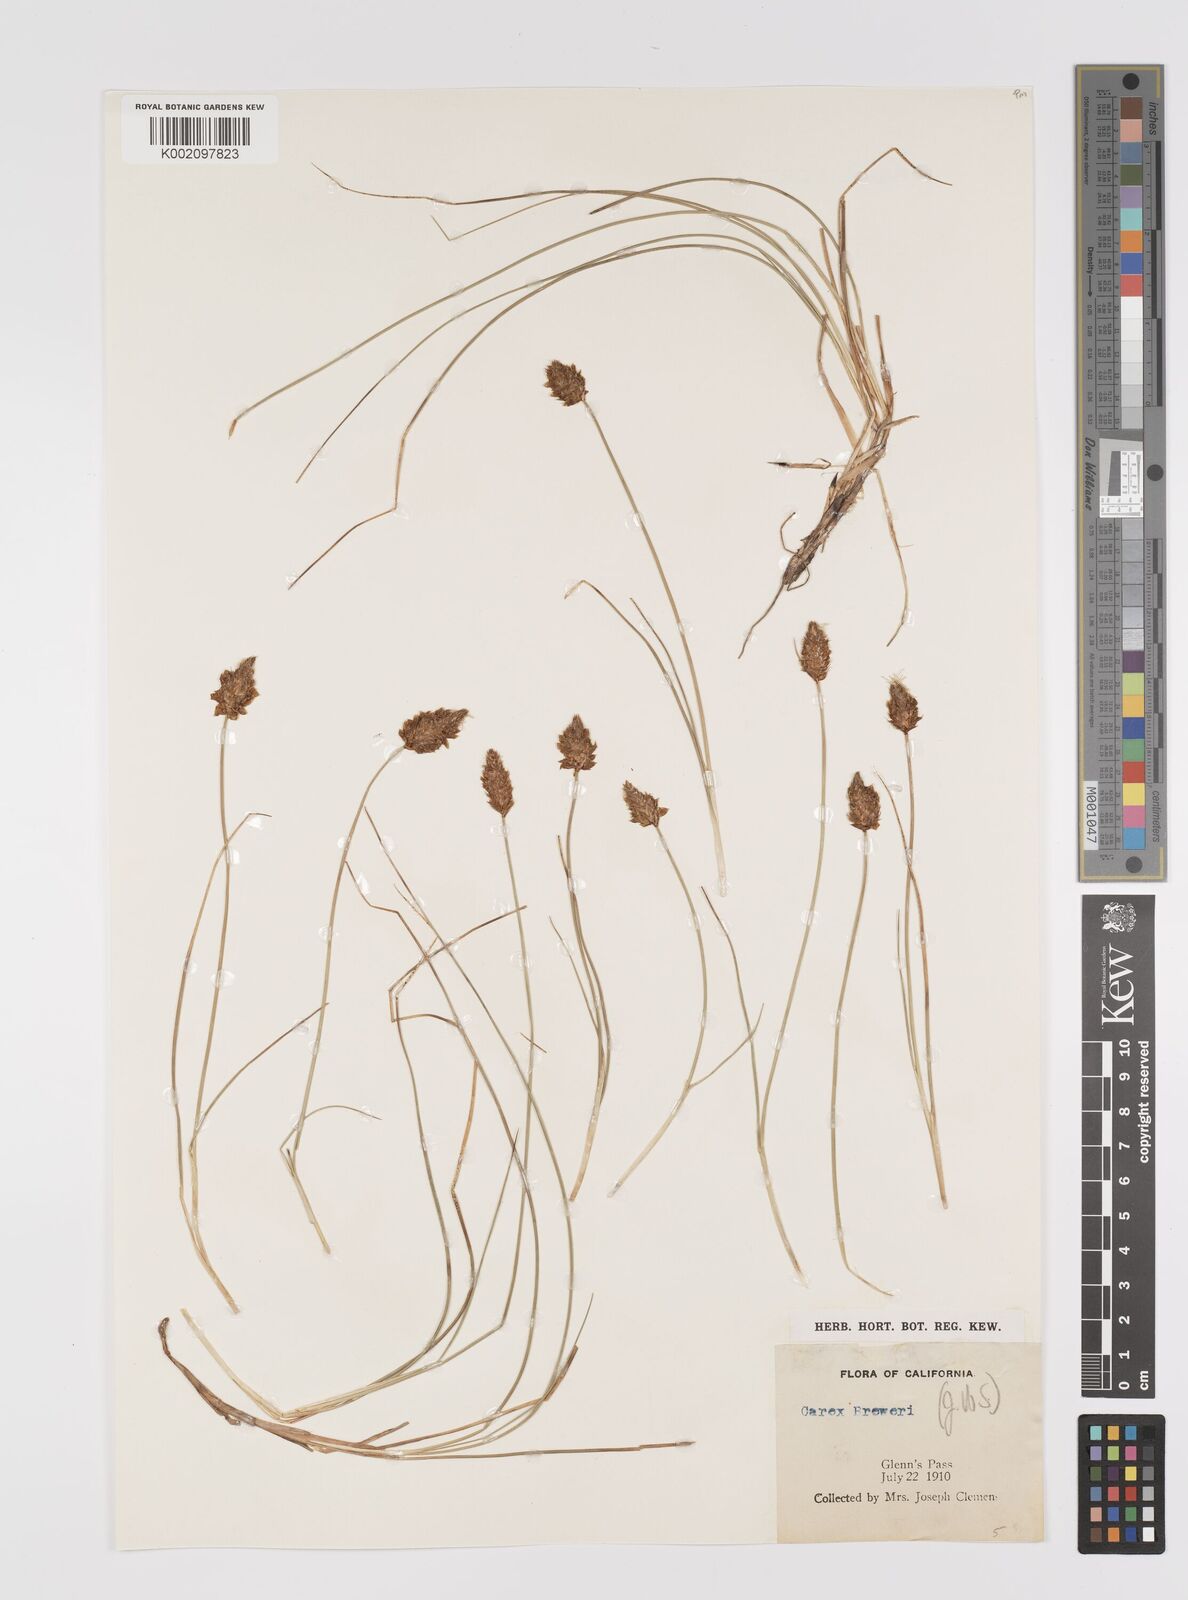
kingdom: Plantae
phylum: Tracheophyta
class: Liliopsida
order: Poales
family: Cyperaceae
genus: Carex
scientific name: Carex breweri
